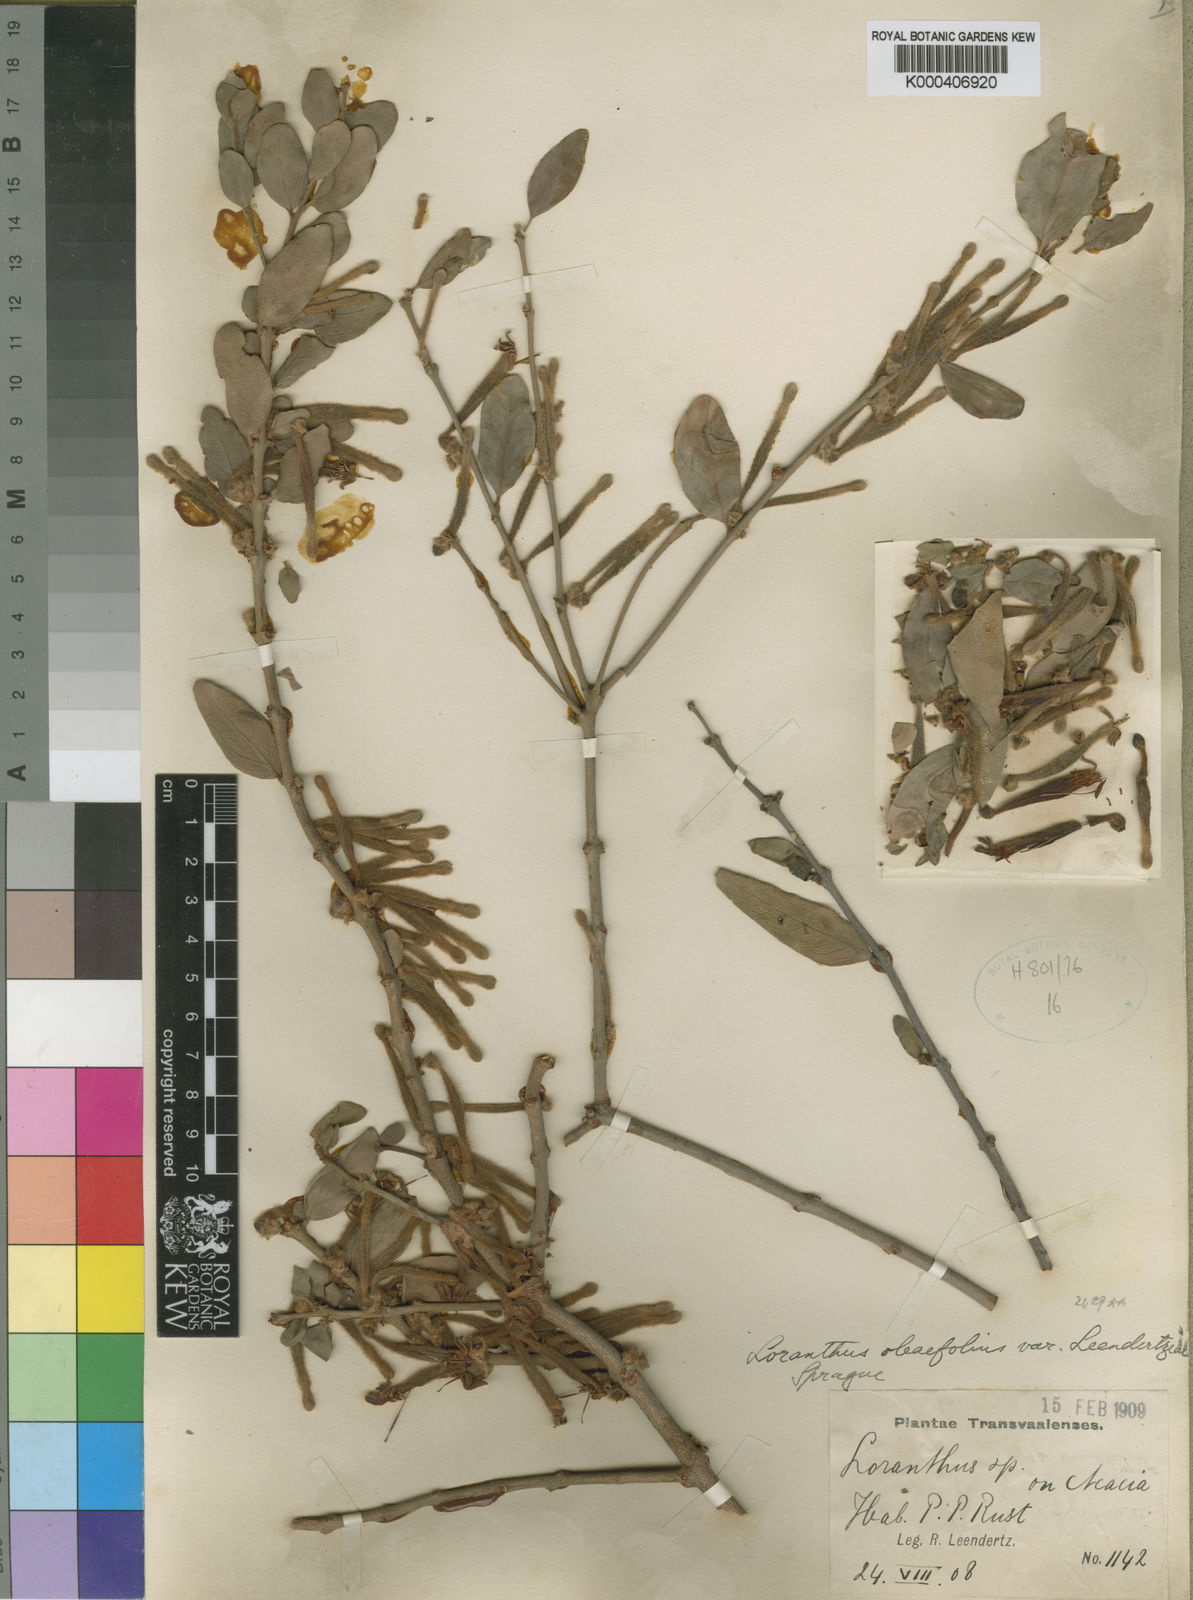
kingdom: Plantae
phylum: Tracheophyta
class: Magnoliopsida
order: Santalales
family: Loranthaceae
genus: Tapinanthus
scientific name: Tapinanthus quequensis
